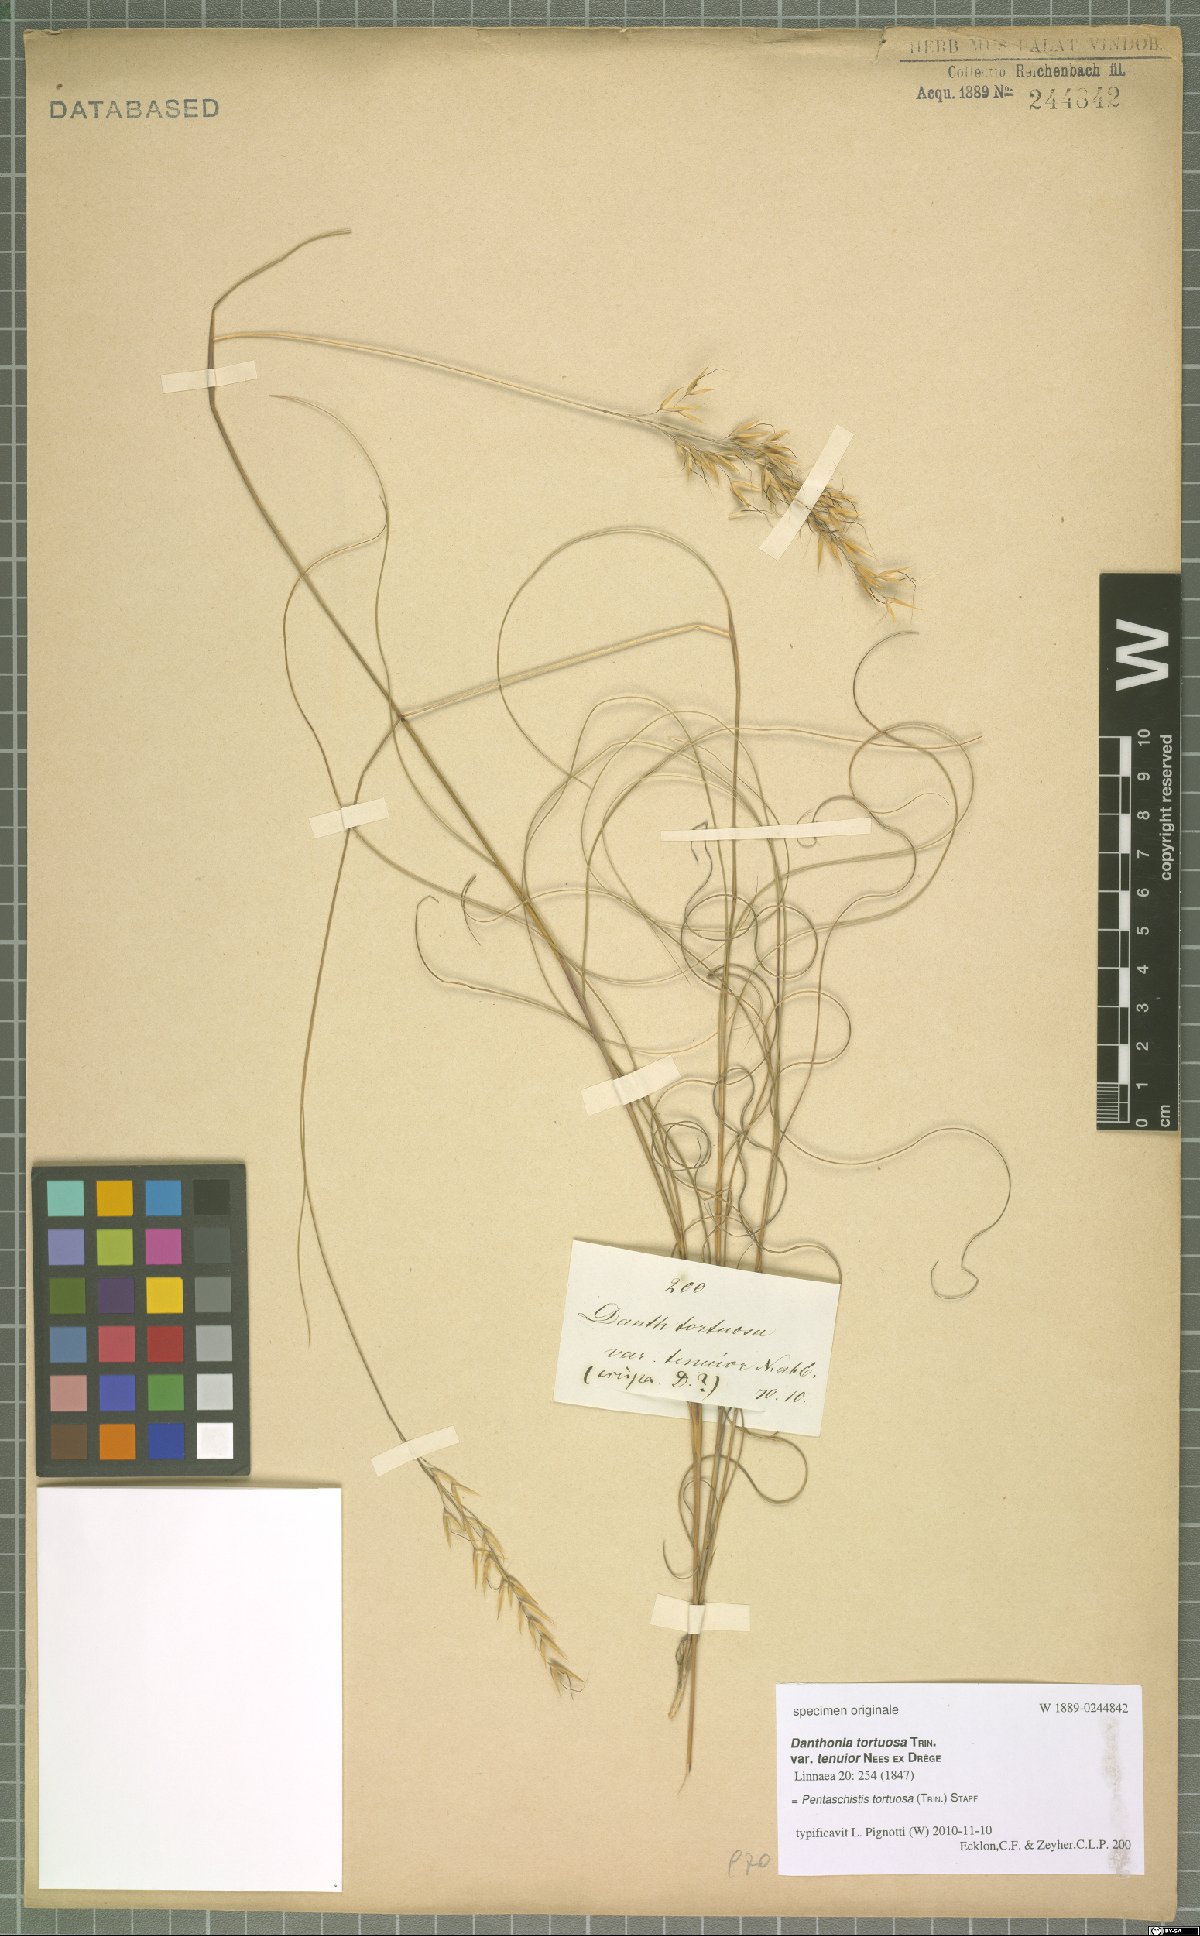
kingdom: Plantae
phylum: Tracheophyta
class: Liliopsida
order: Poales
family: Poaceae
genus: Pentameris
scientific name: Pentameris tortuosa
